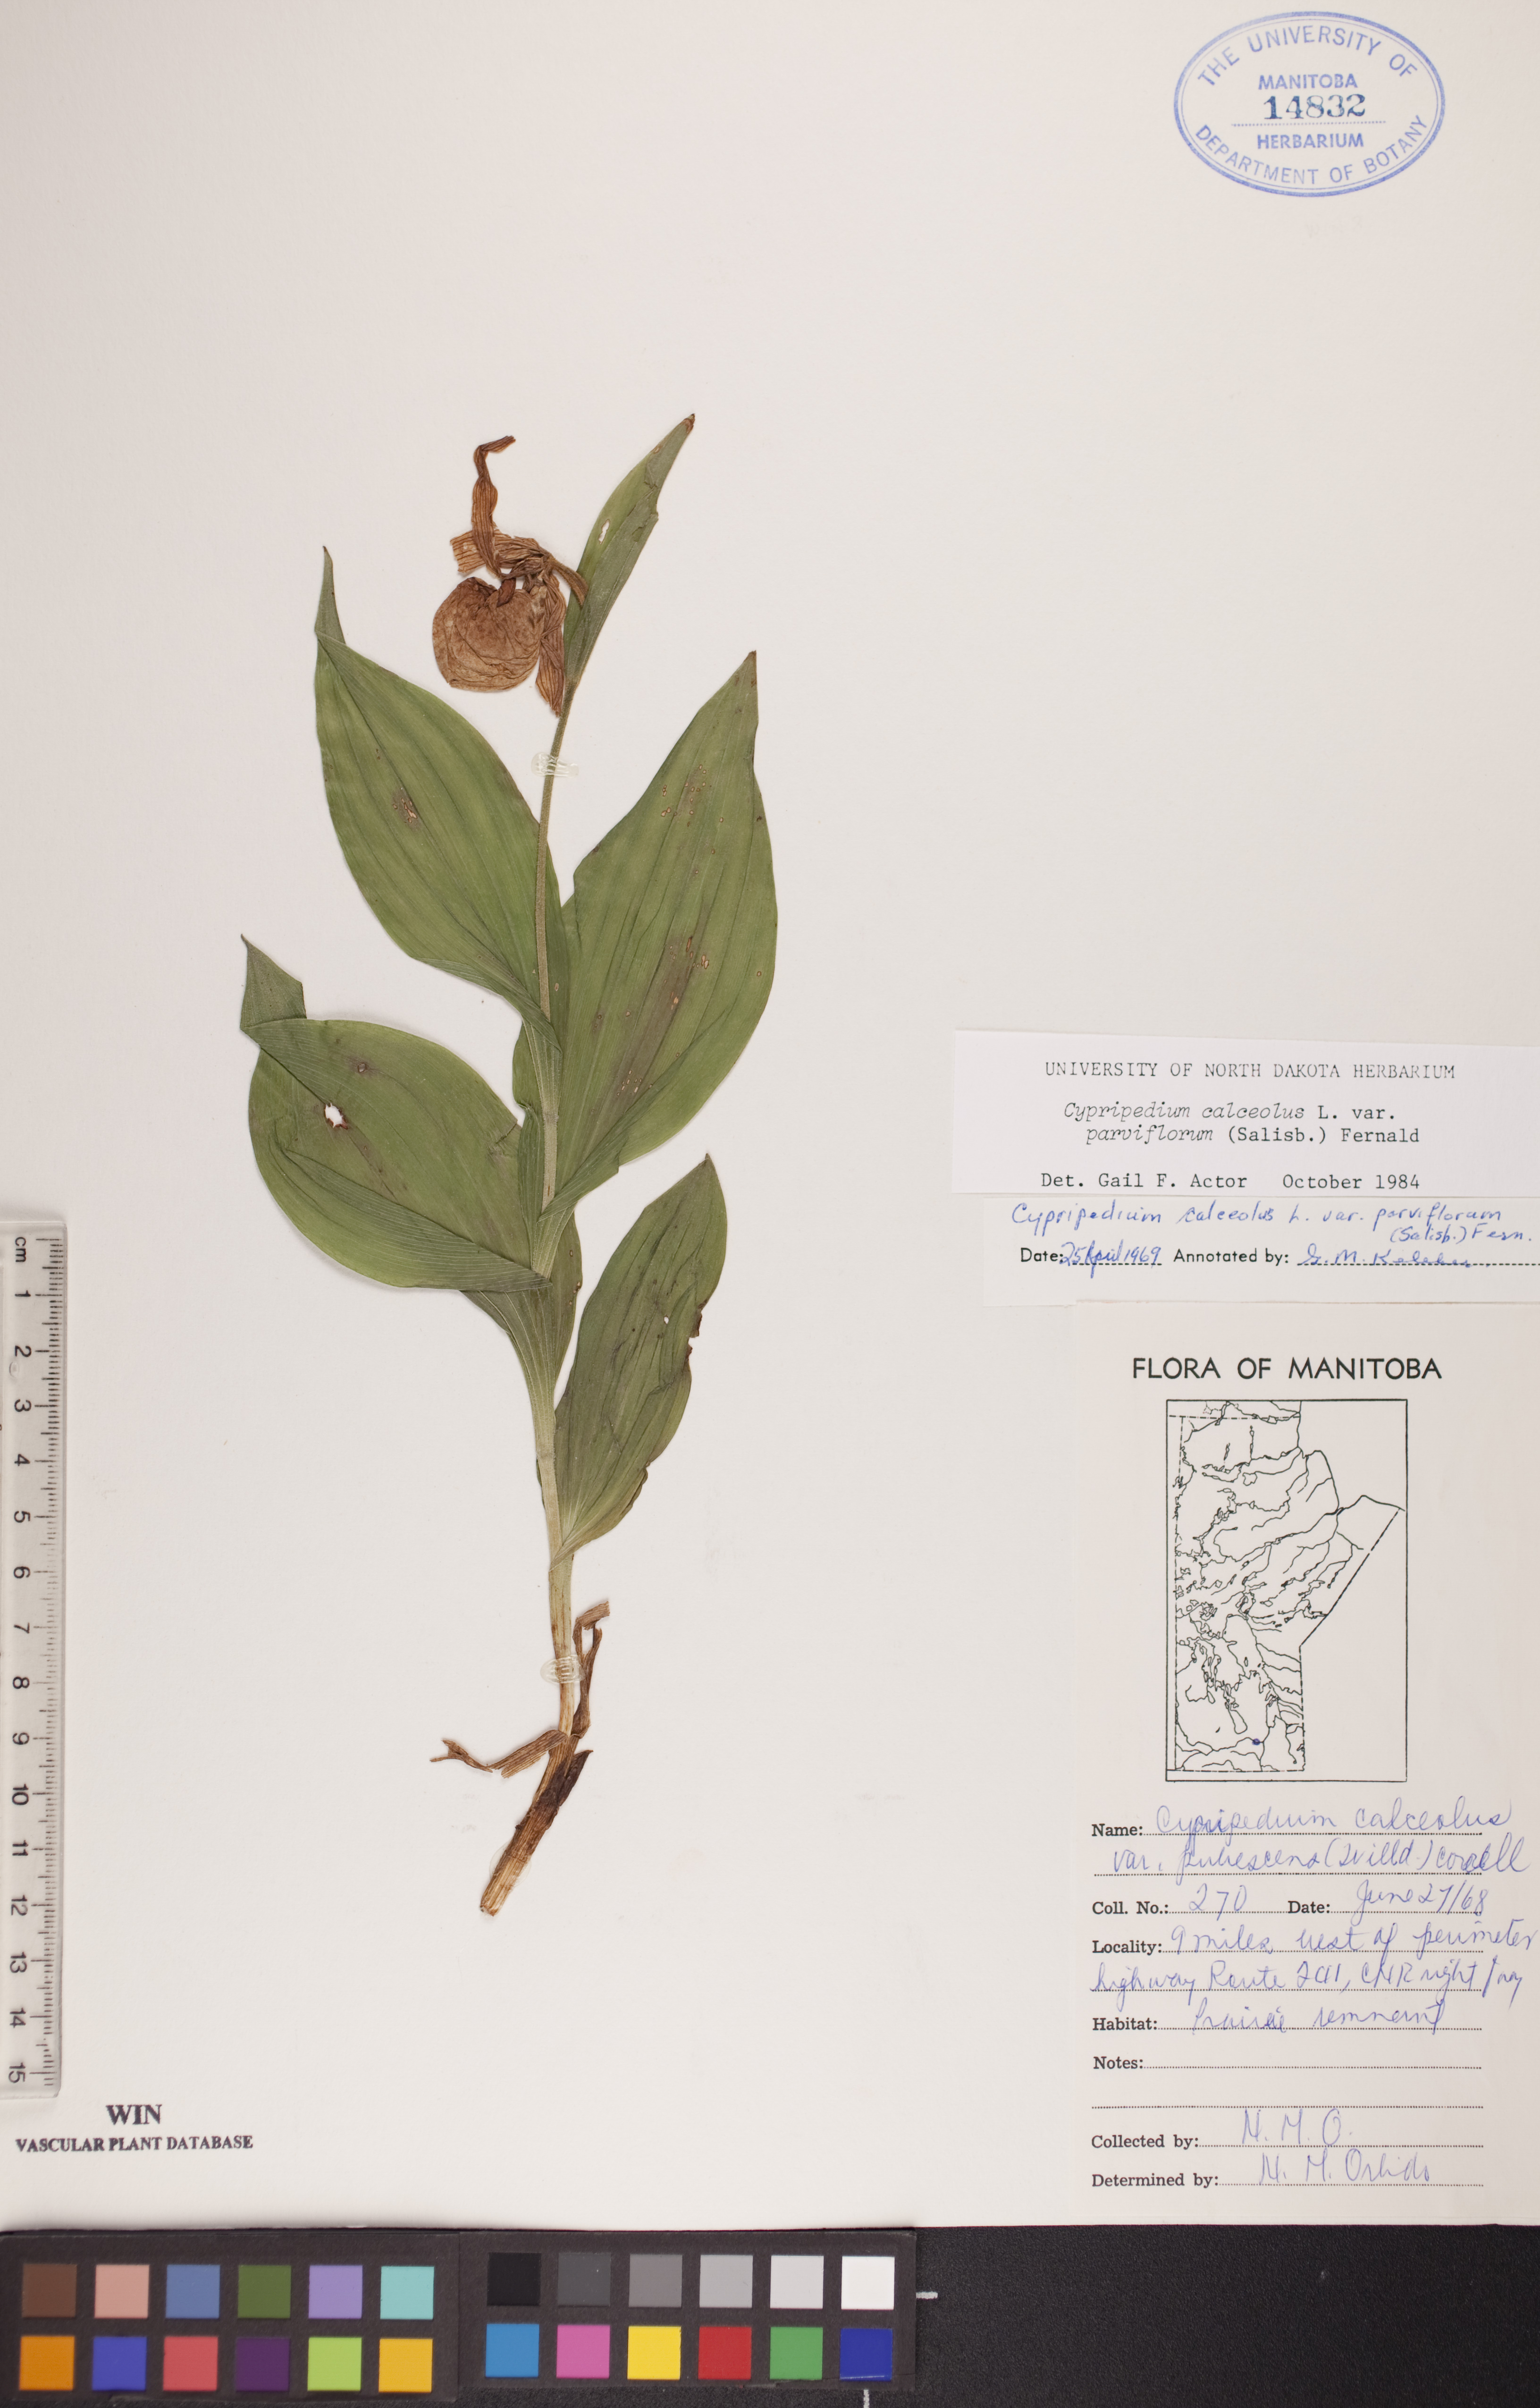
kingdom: Plantae
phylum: Tracheophyta
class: Liliopsida
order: Asparagales
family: Orchidaceae
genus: Cypripedium
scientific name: Cypripedium parviflorum
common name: American yellow lady's-slipper
